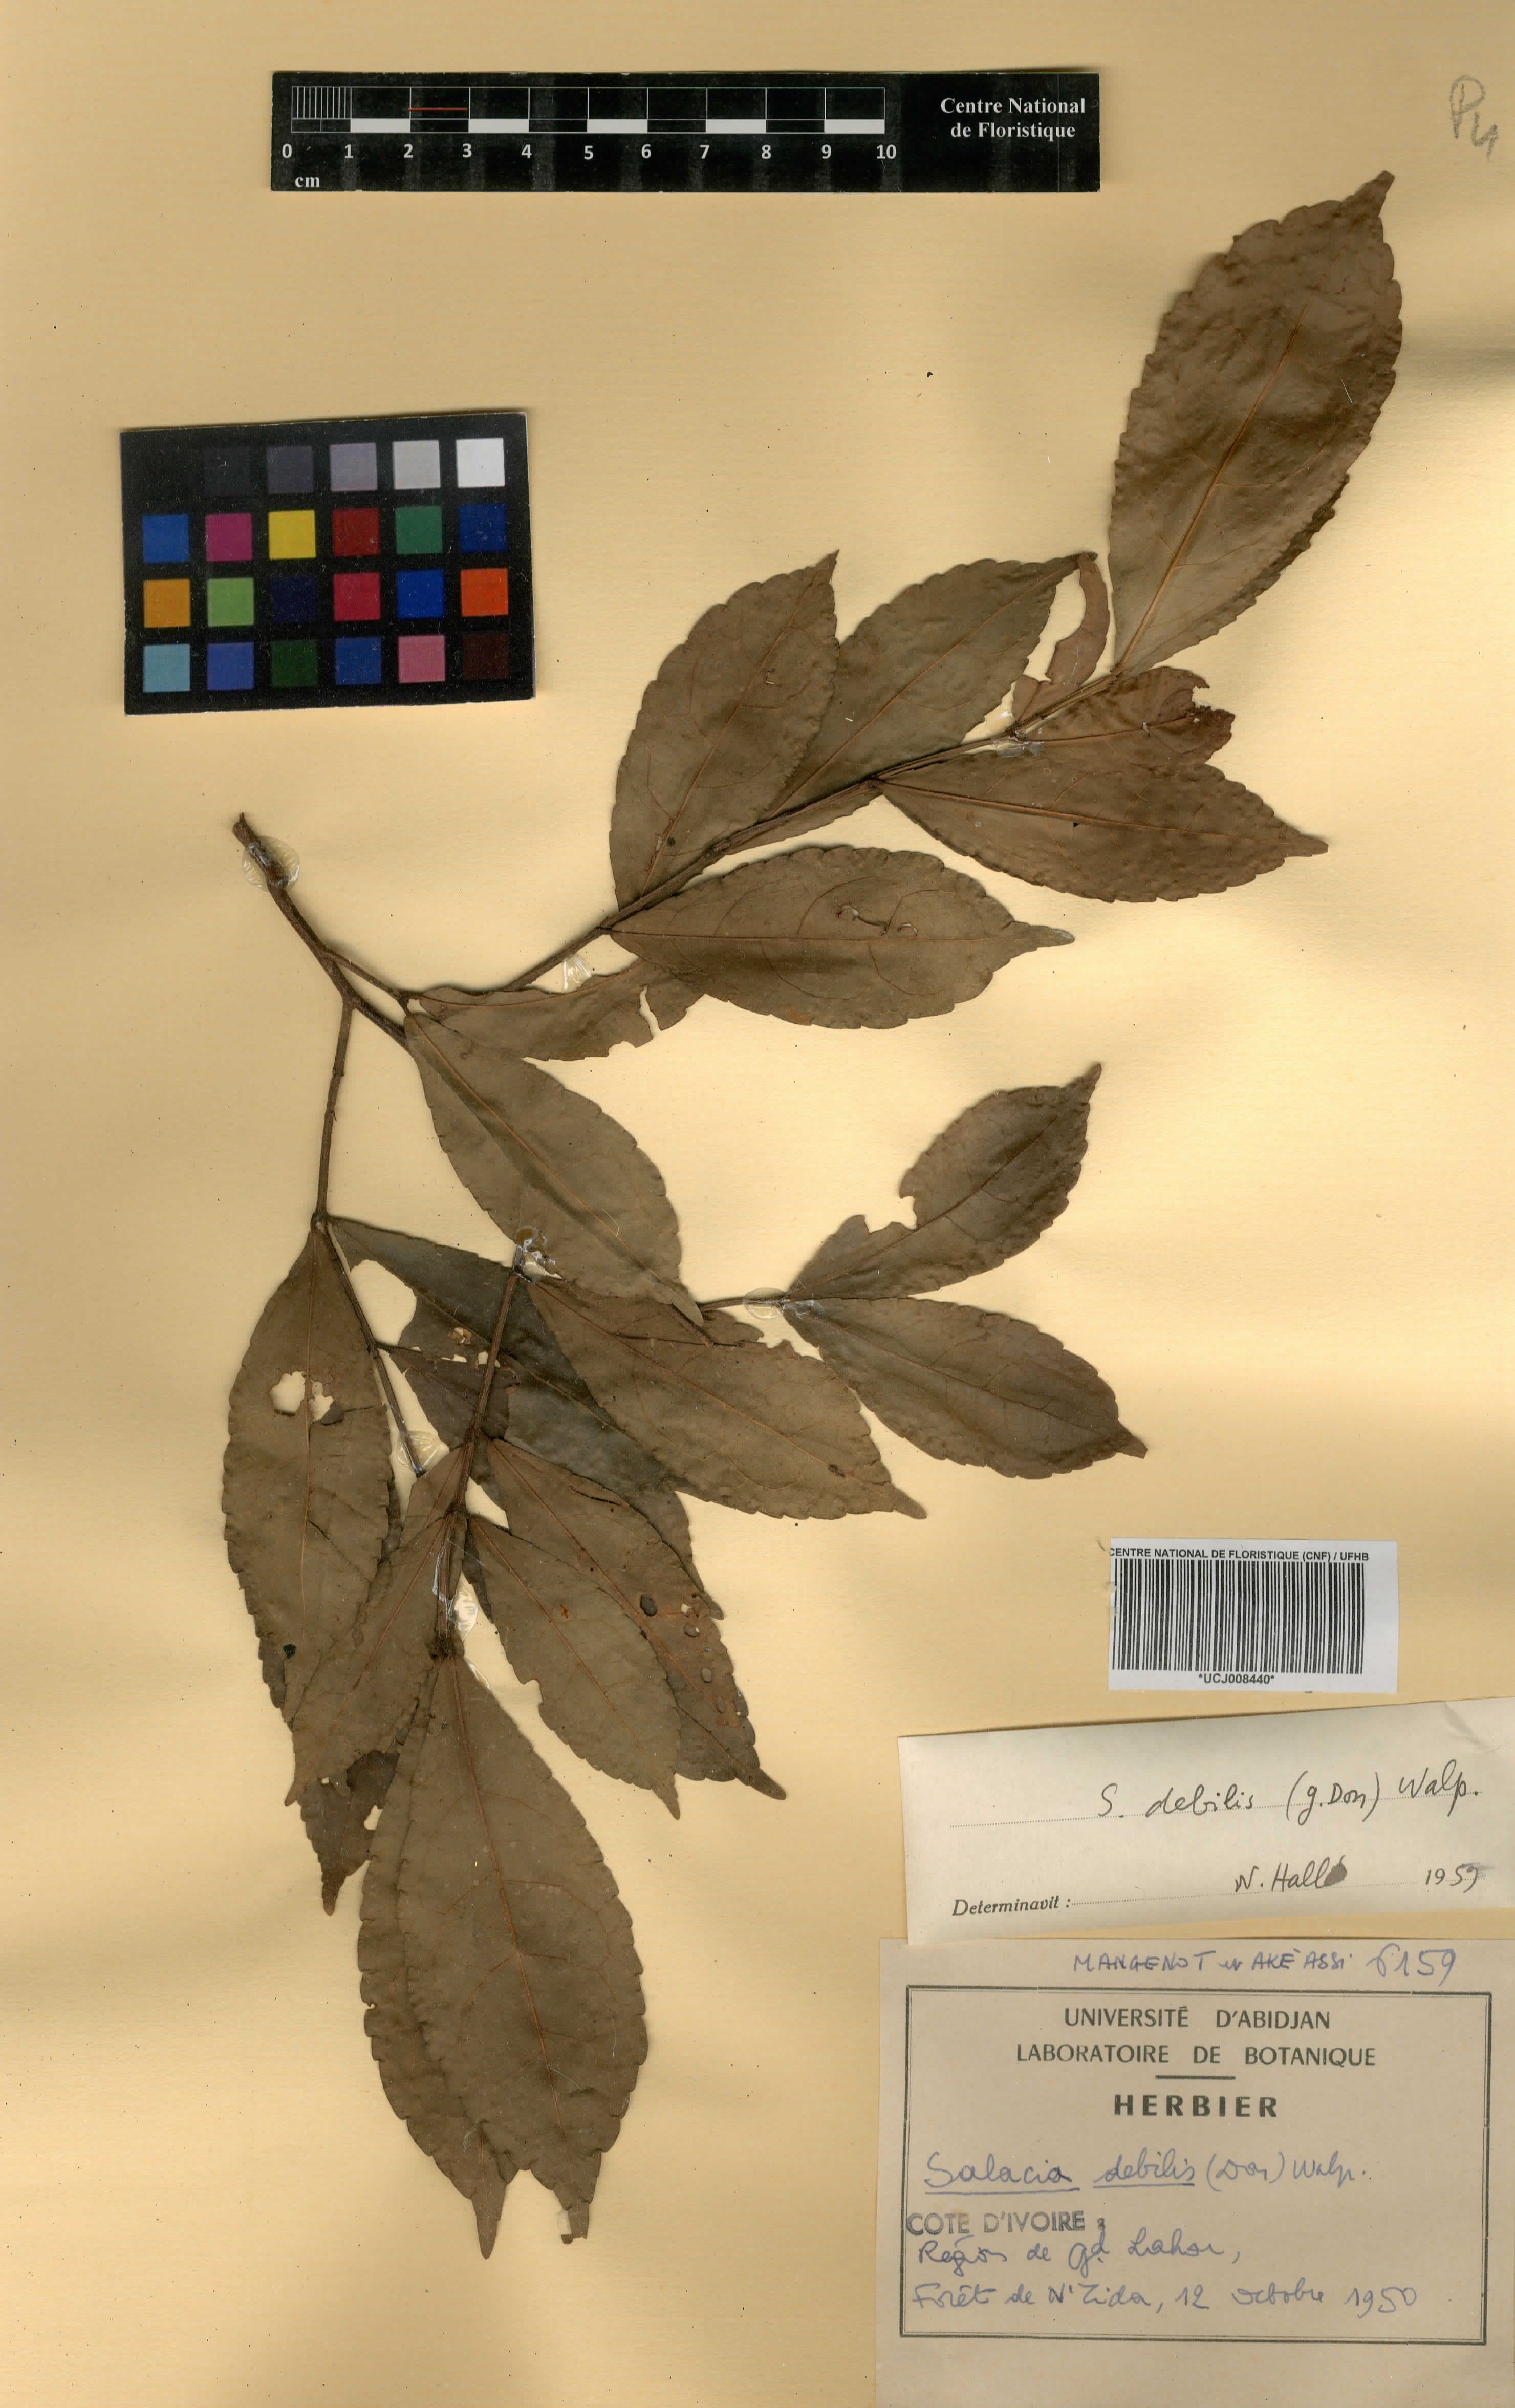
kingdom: Plantae
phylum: Tracheophyta
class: Magnoliopsida
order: Celastrales
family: Celastraceae
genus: Salacia
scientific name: Salacia debilis
